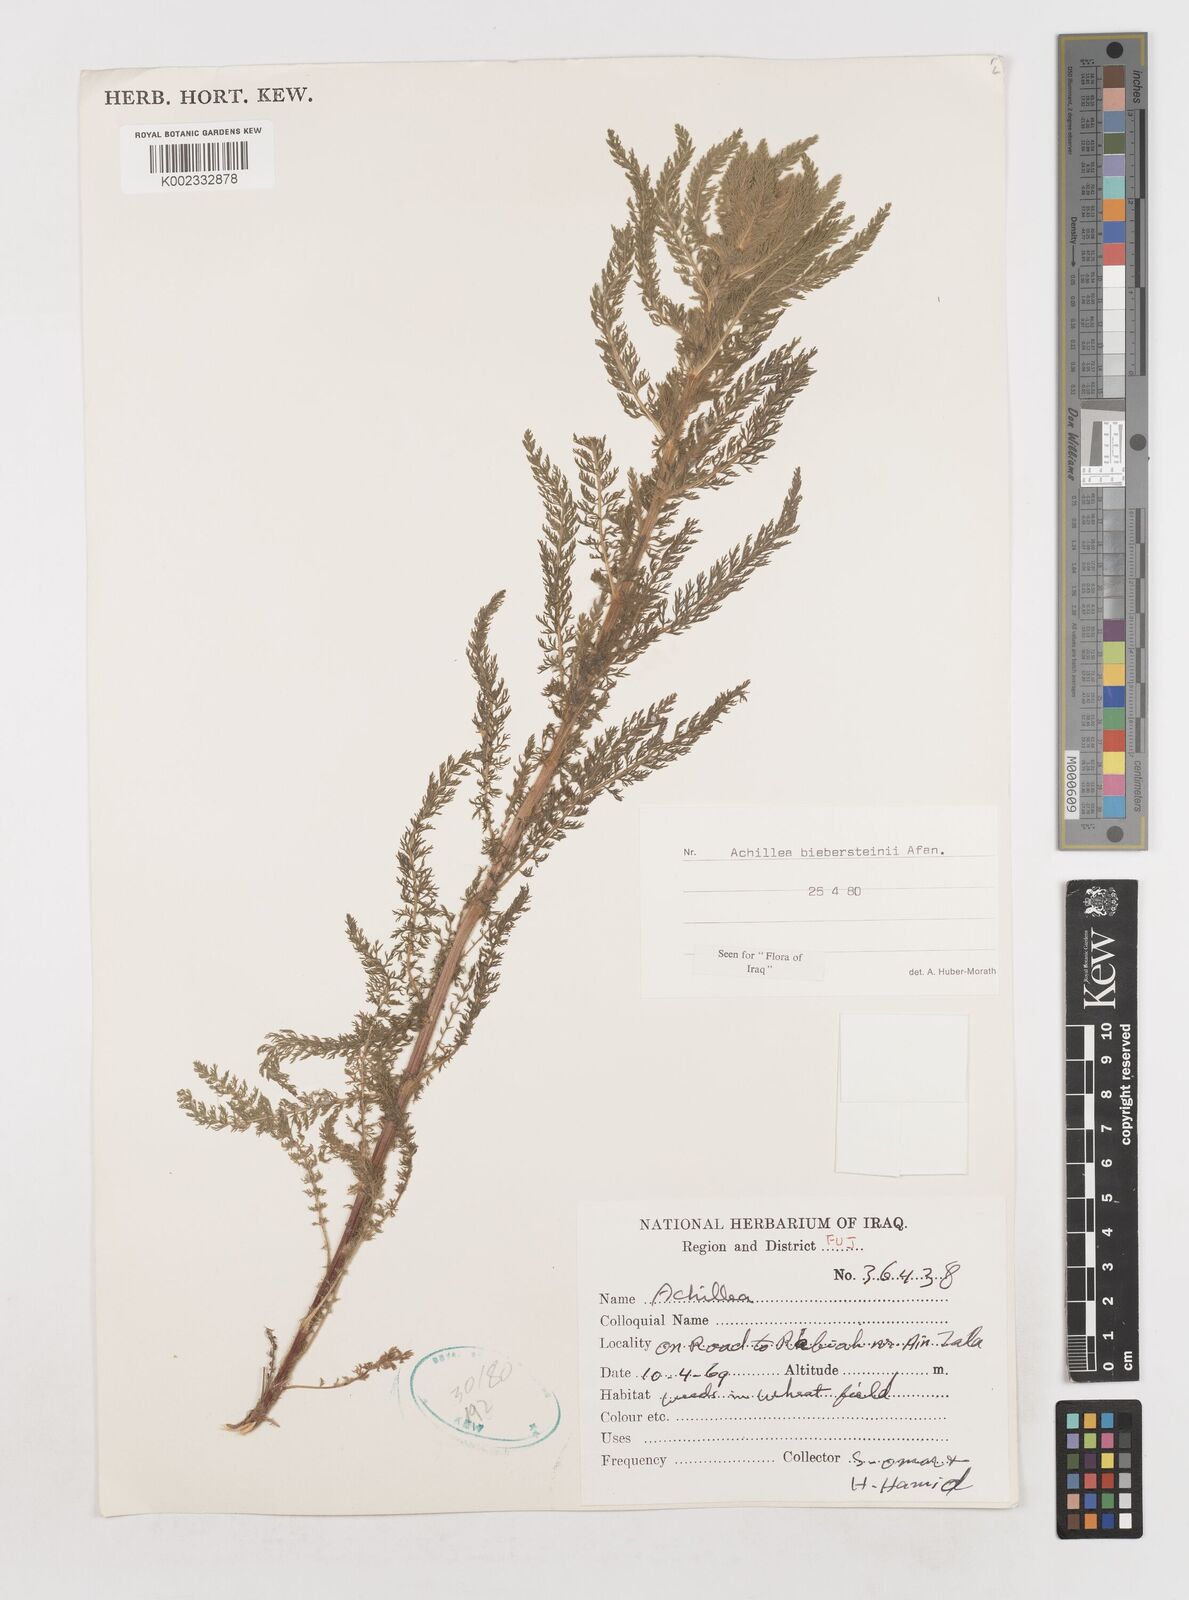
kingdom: Plantae
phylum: Tracheophyta
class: Magnoliopsida
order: Asterales
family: Asteraceae
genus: Achillea
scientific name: Achillea arabica
